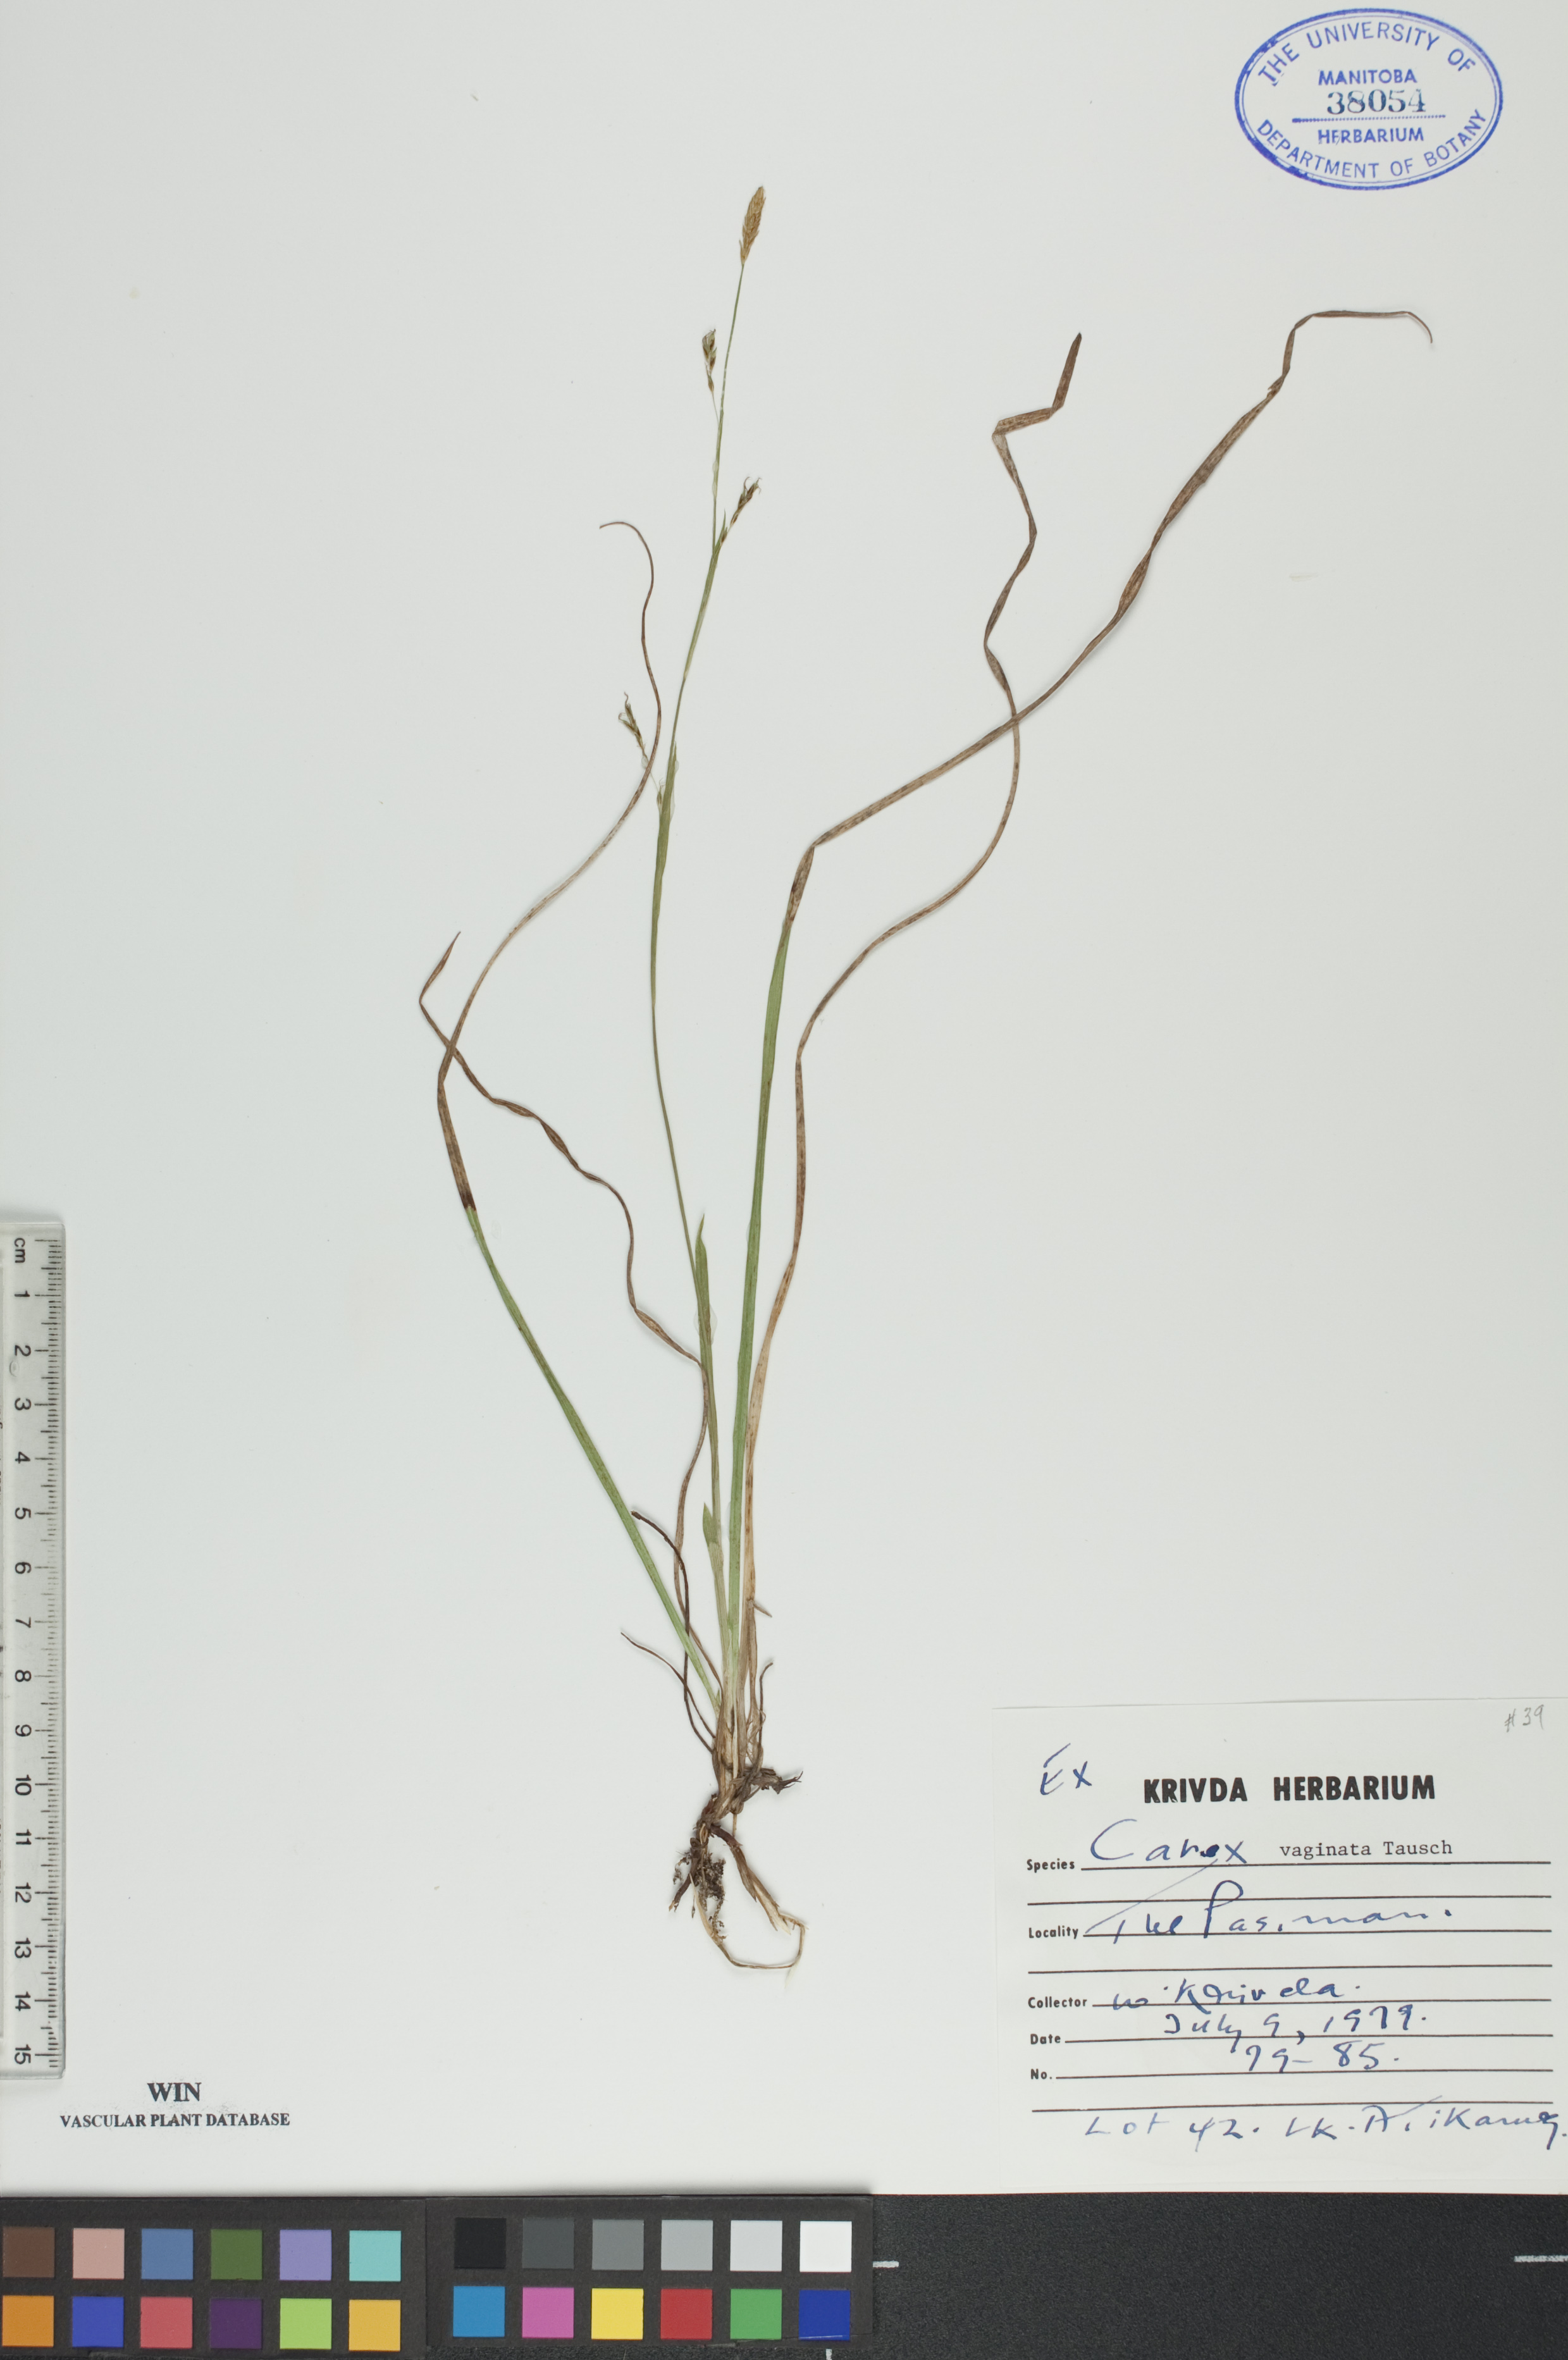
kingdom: Plantae
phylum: Tracheophyta
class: Liliopsida
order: Poales
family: Cyperaceae
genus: Carex
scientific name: Carex vaginata
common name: Sheathed sedge
